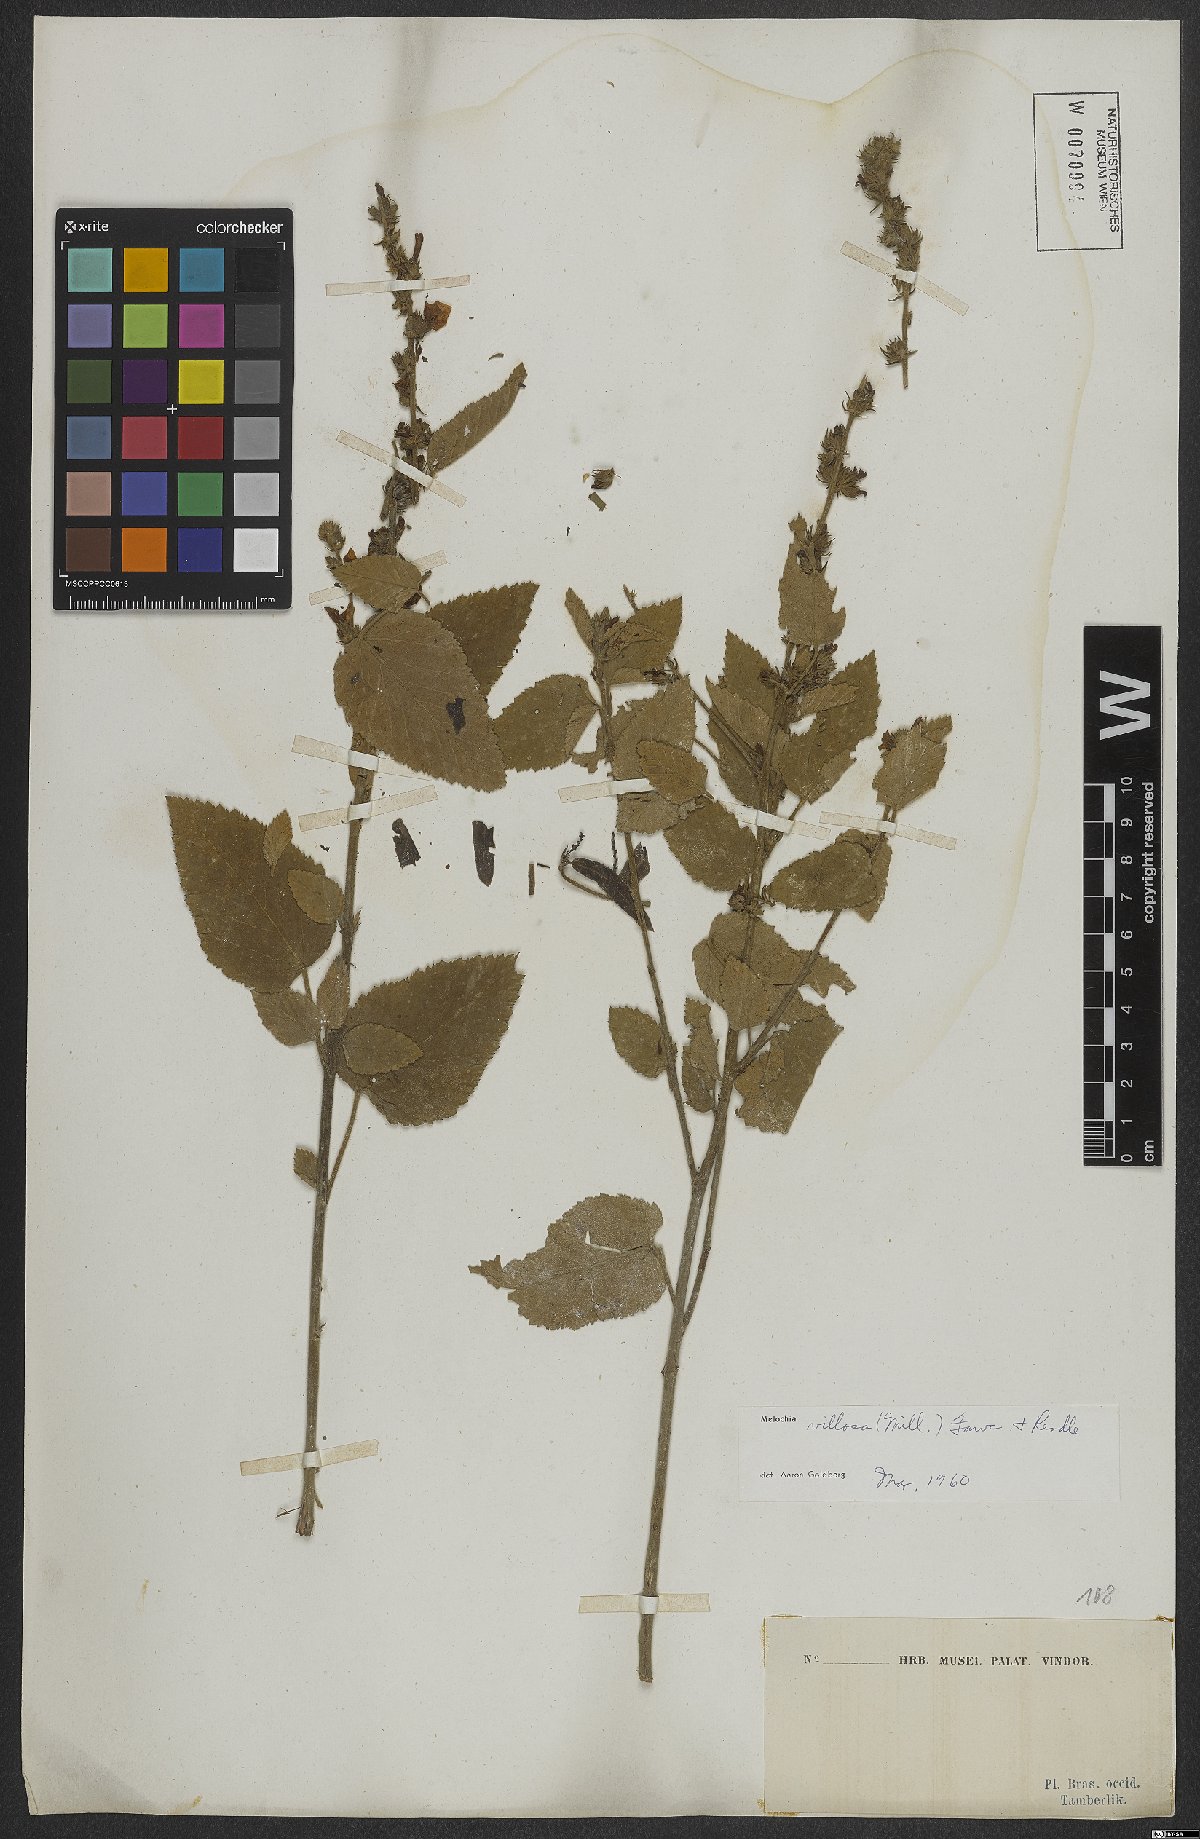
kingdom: Plantae
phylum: Tracheophyta
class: Magnoliopsida
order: Malvales
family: Malvaceae
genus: Melochia
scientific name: Melochia spicata
